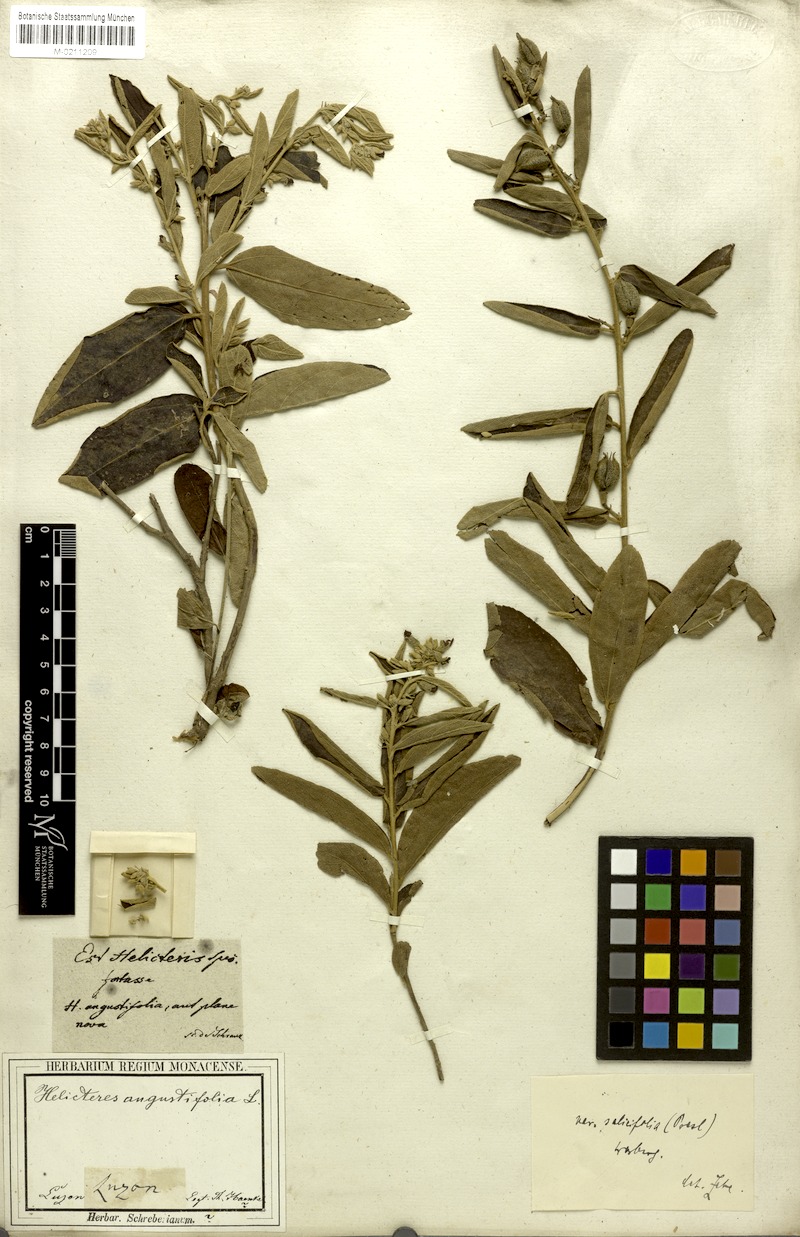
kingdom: Plantae
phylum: Tracheophyta
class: Magnoliopsida
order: Malvales
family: Malvaceae
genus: Helicteres
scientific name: Helicteres angustifolia
